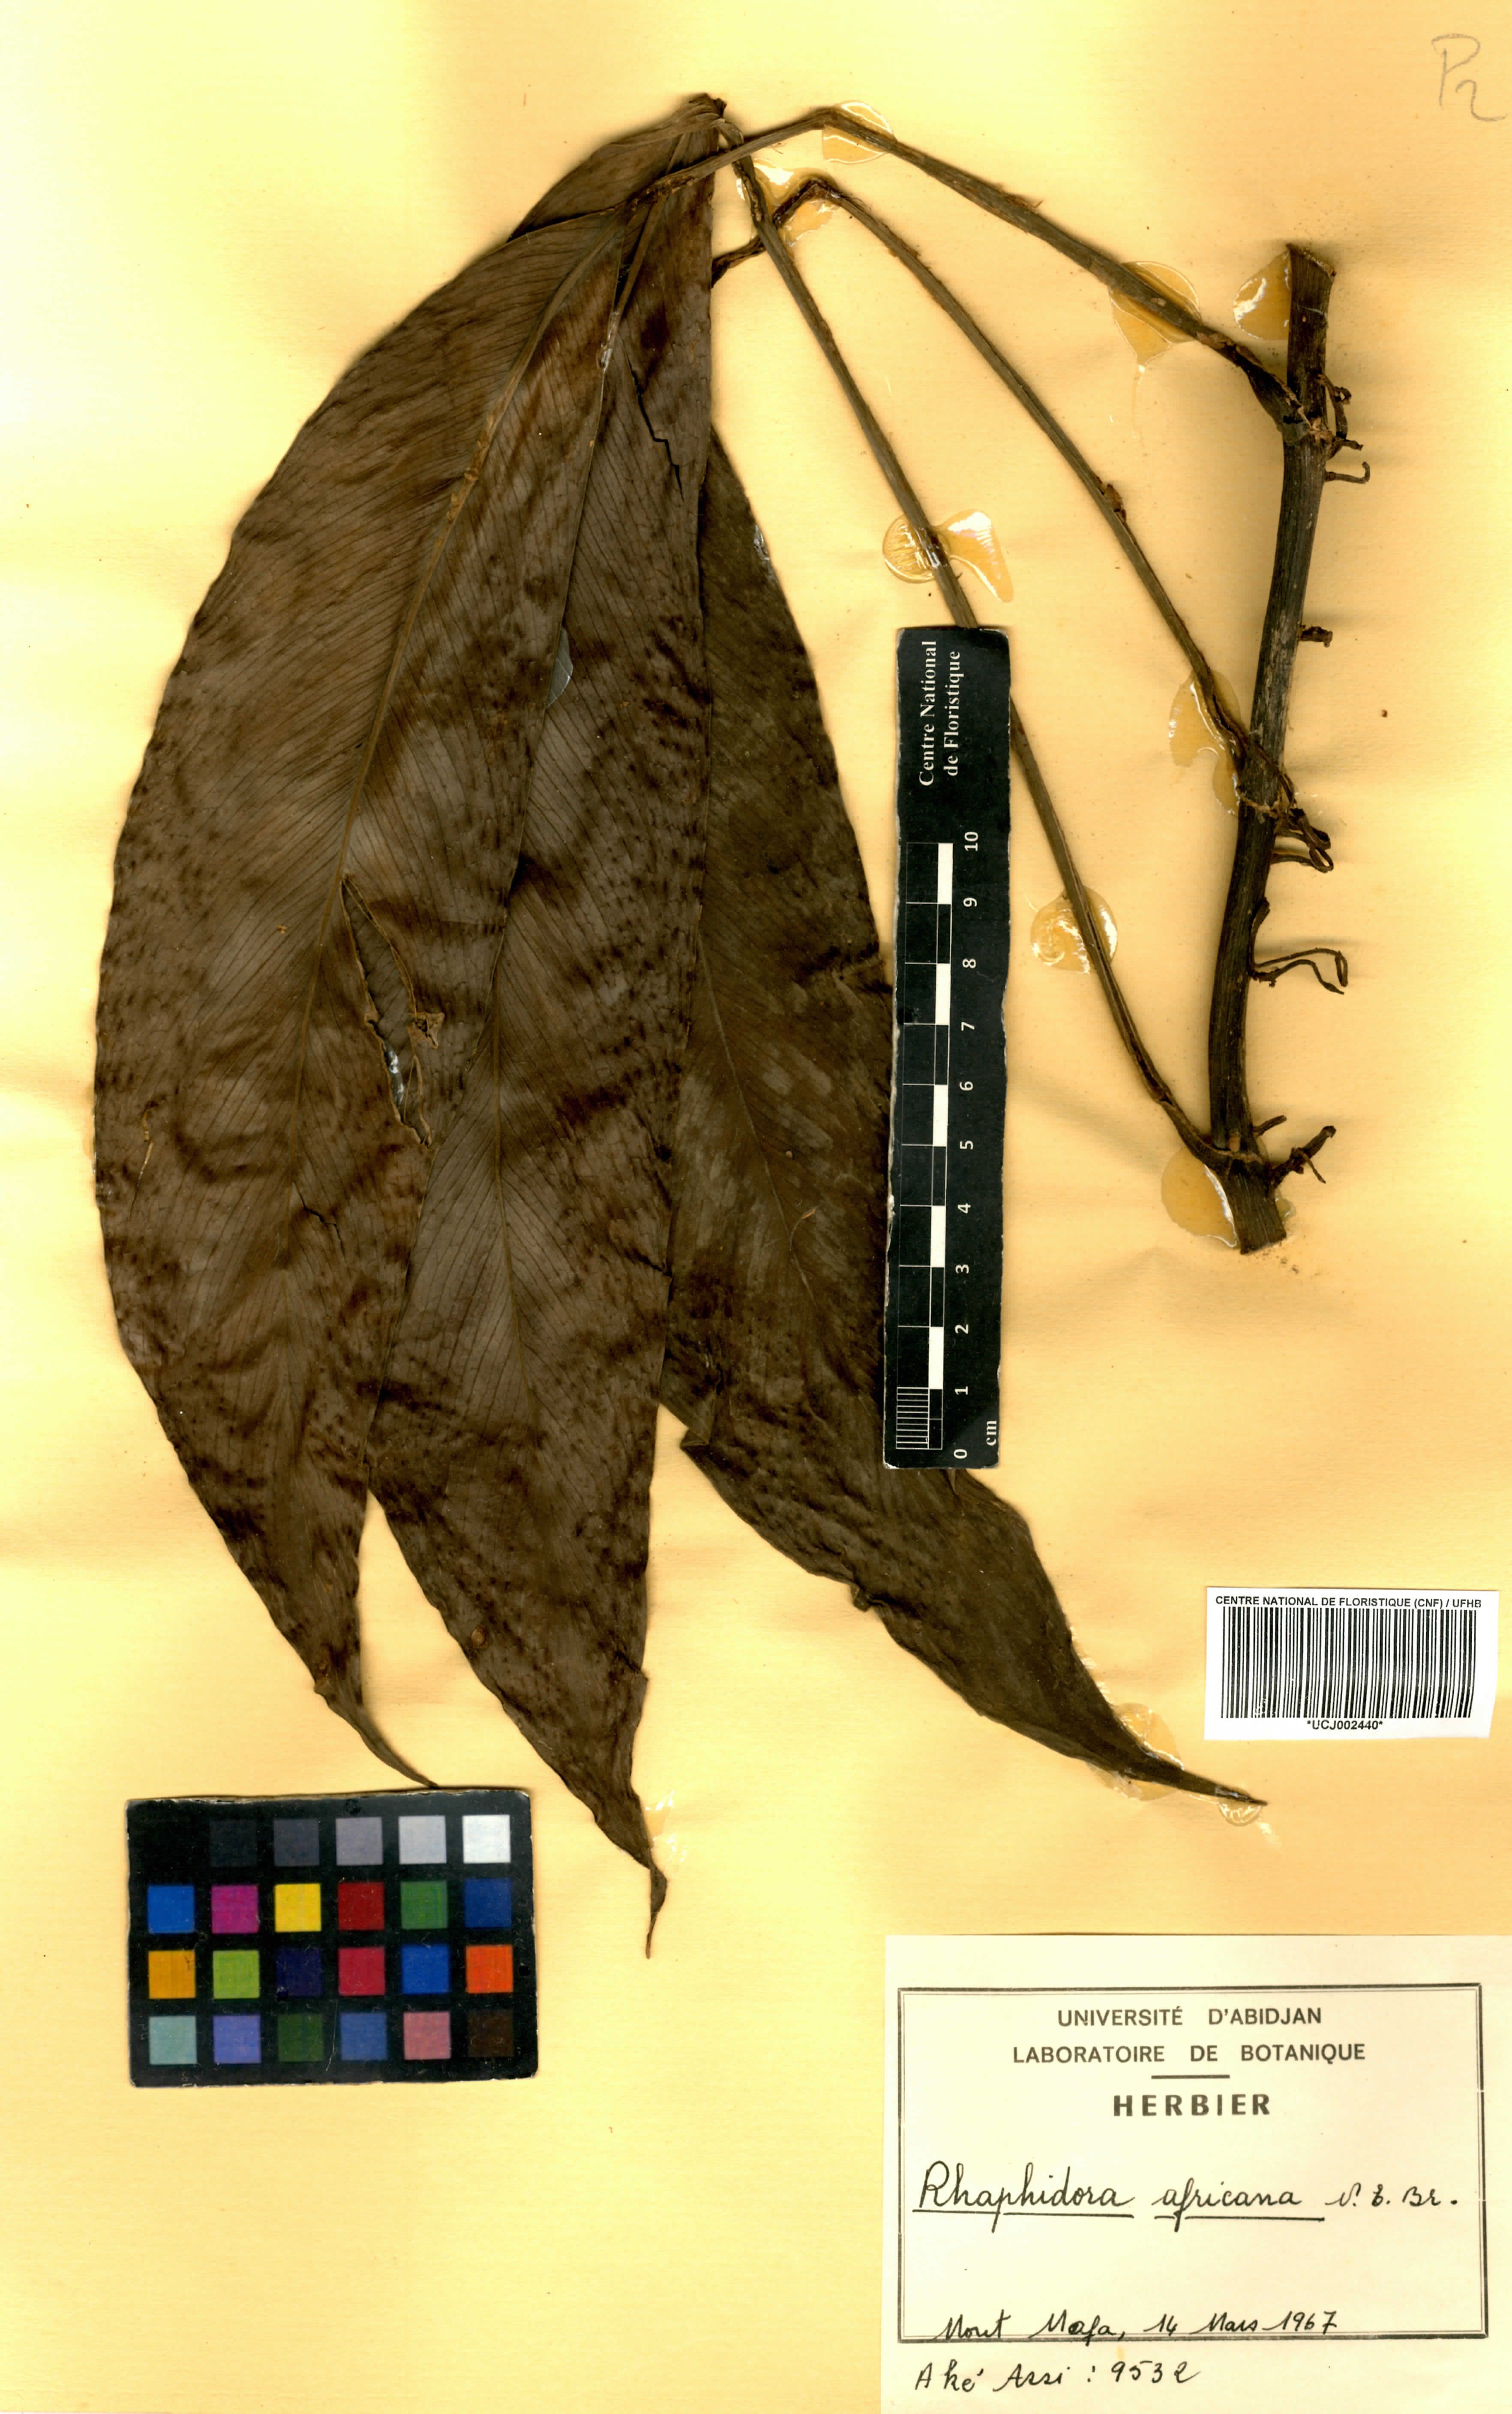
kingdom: Plantae
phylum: Tracheophyta
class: Liliopsida
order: Alismatales
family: Araceae
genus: Rhaphidophora
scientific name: Rhaphidophora africana
